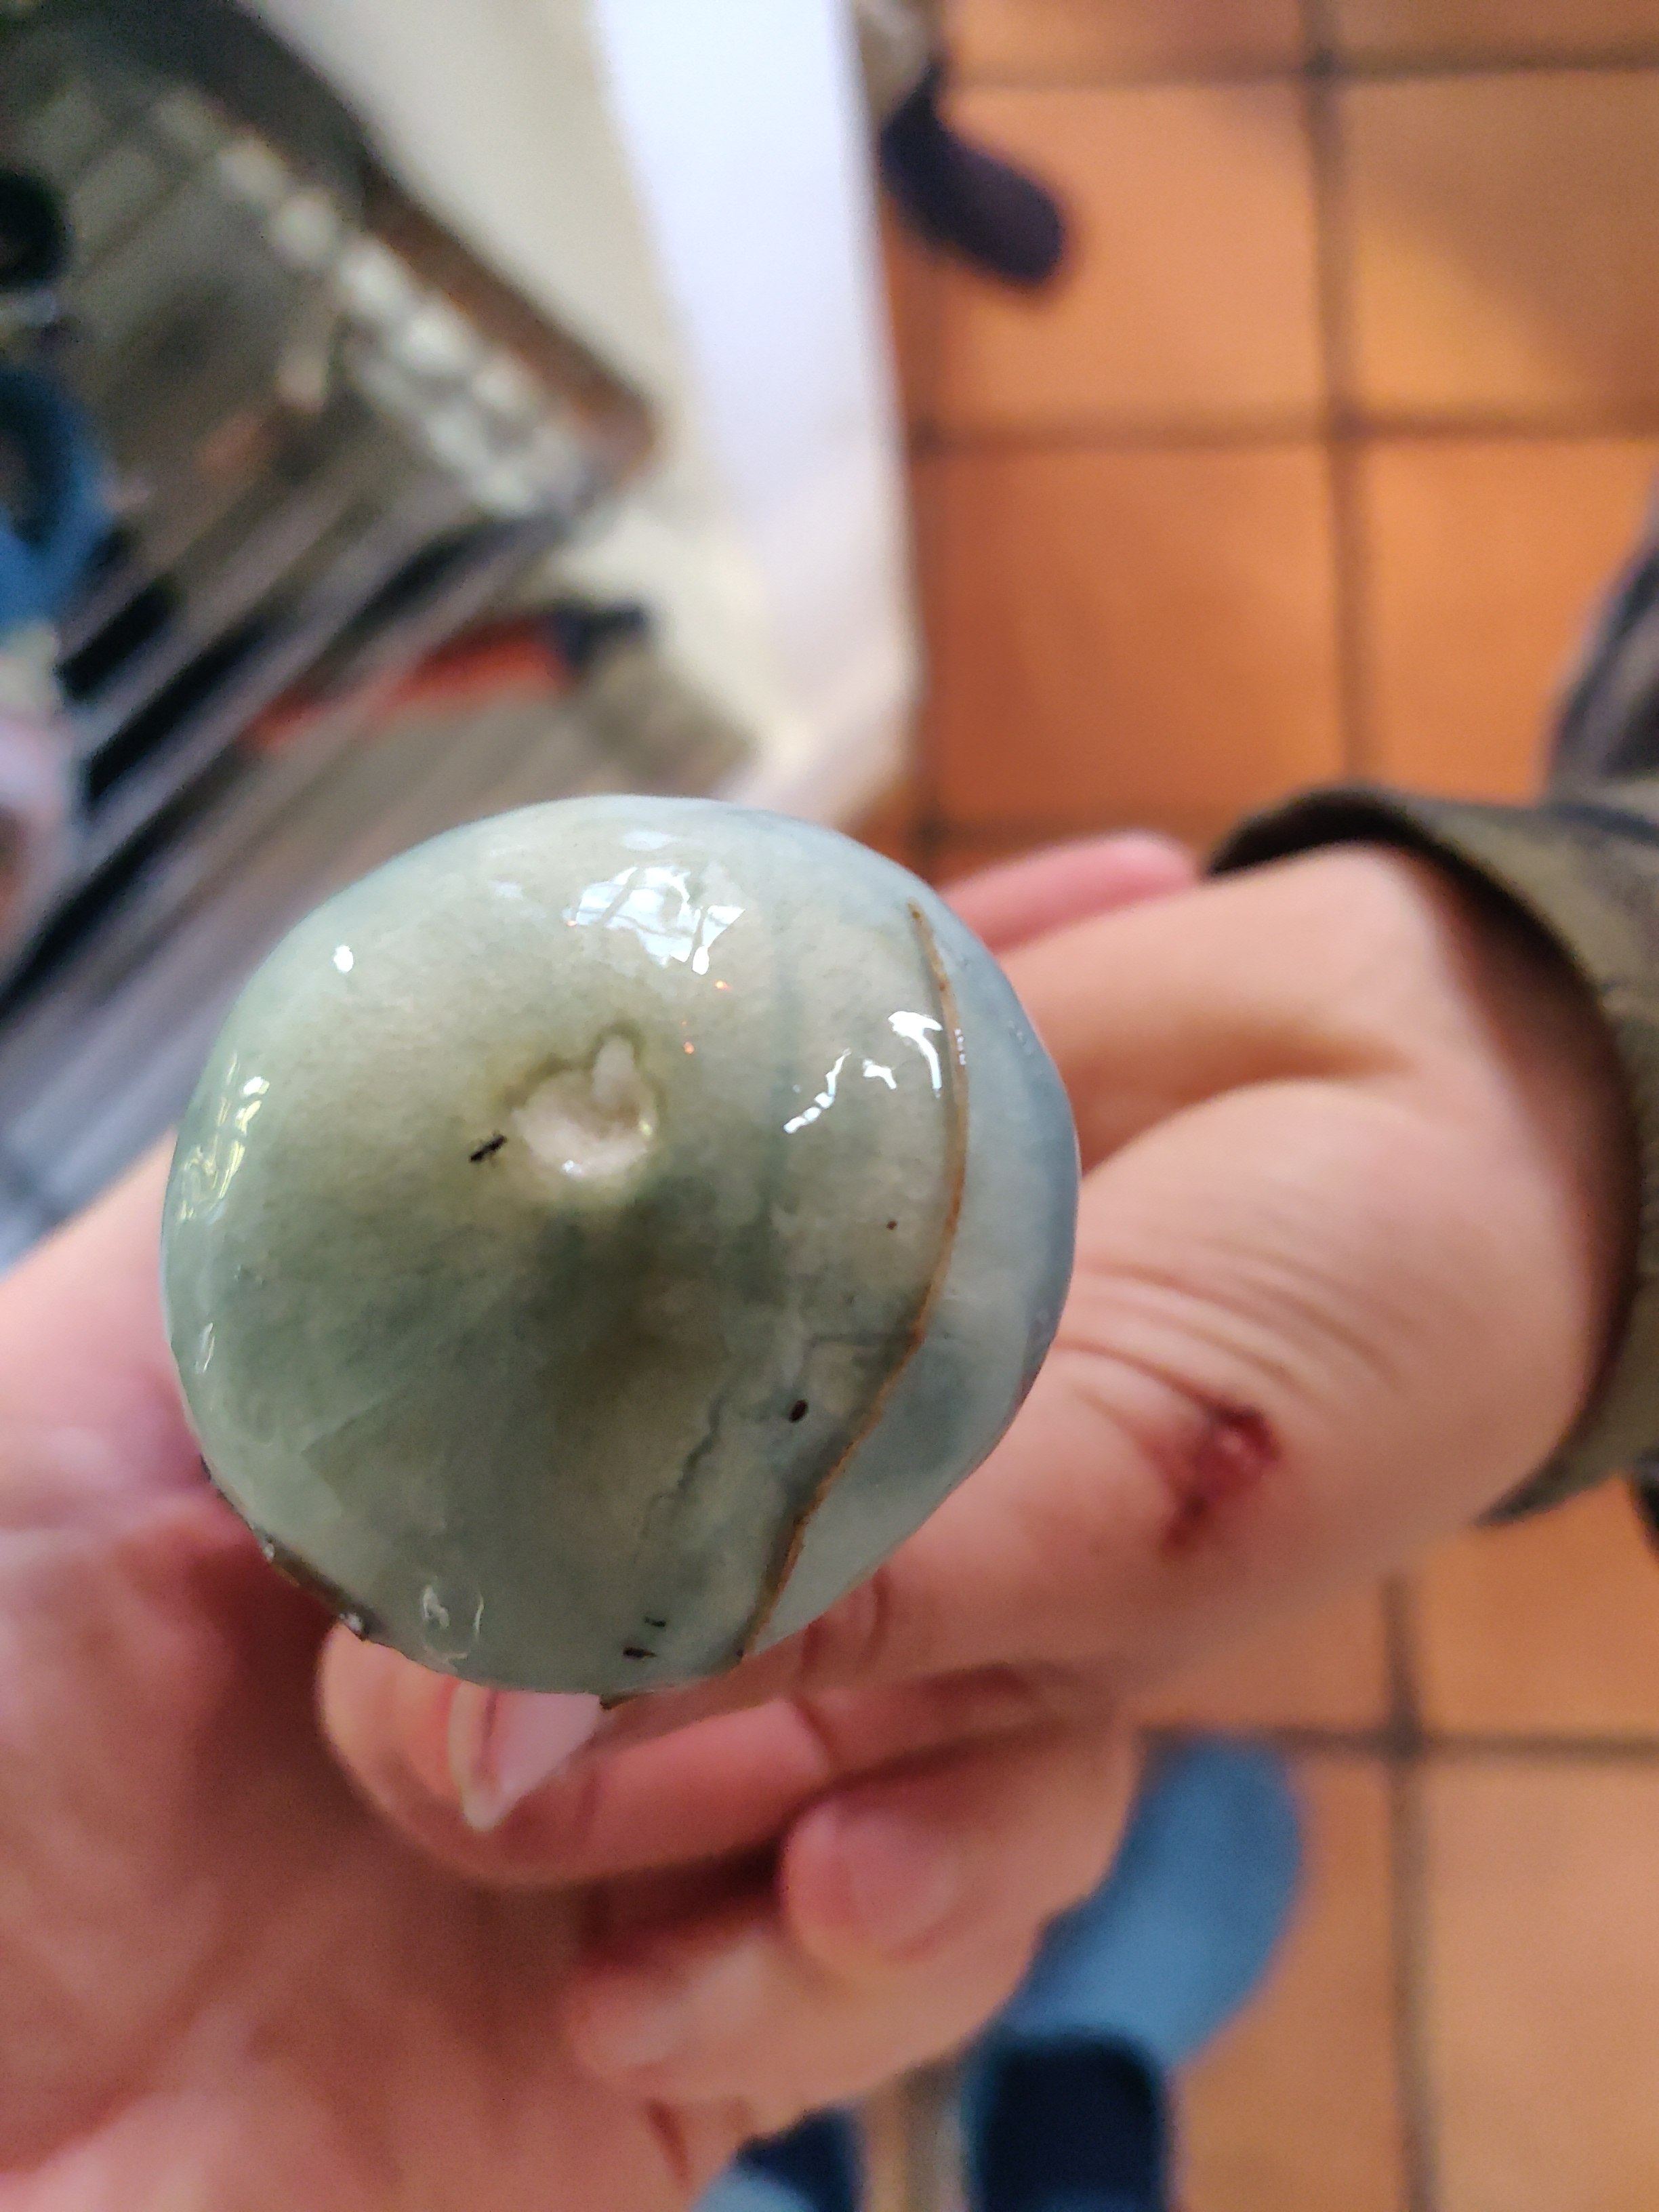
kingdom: Fungi
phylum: Basidiomycota
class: Agaricomycetes
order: Agaricales
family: Strophariaceae
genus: Stropharia
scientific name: Stropharia cyanea
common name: blågrøn bredblad
